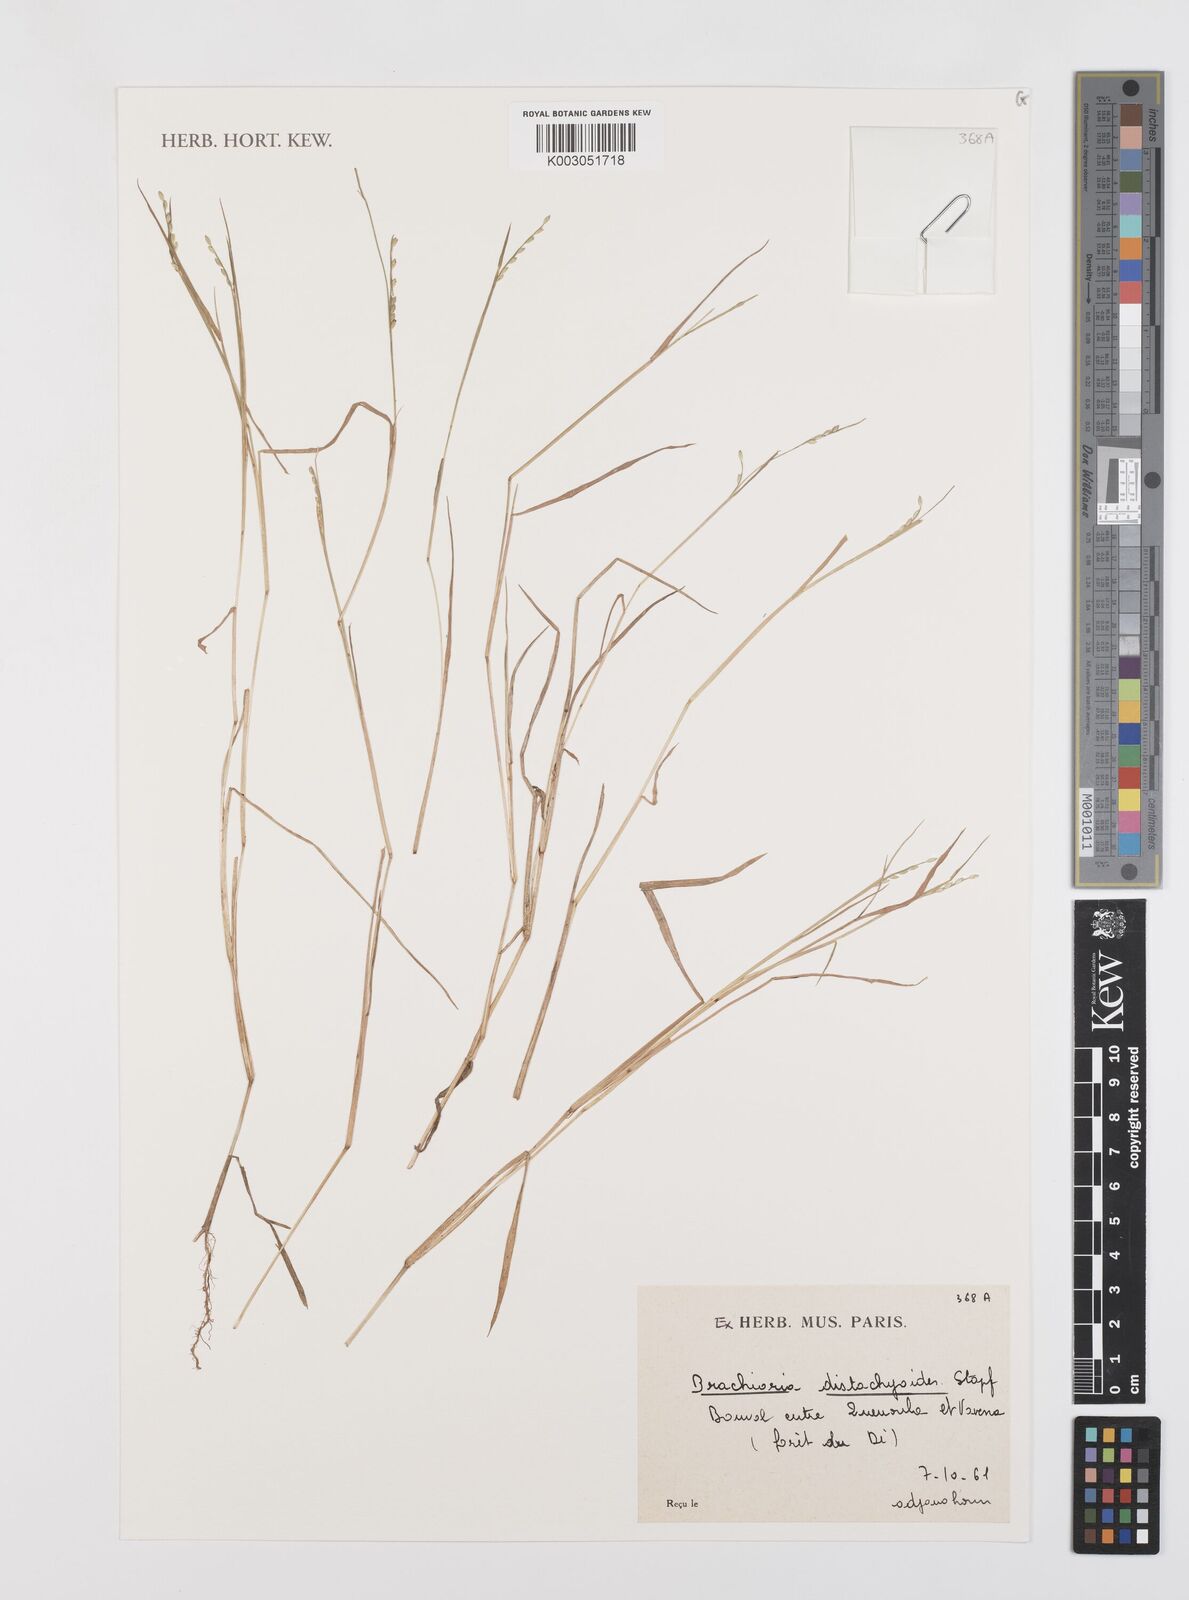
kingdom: Plantae
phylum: Tracheophyta
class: Liliopsida
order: Poales
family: Poaceae
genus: Urochloa
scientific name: Urochloa distachyoides
